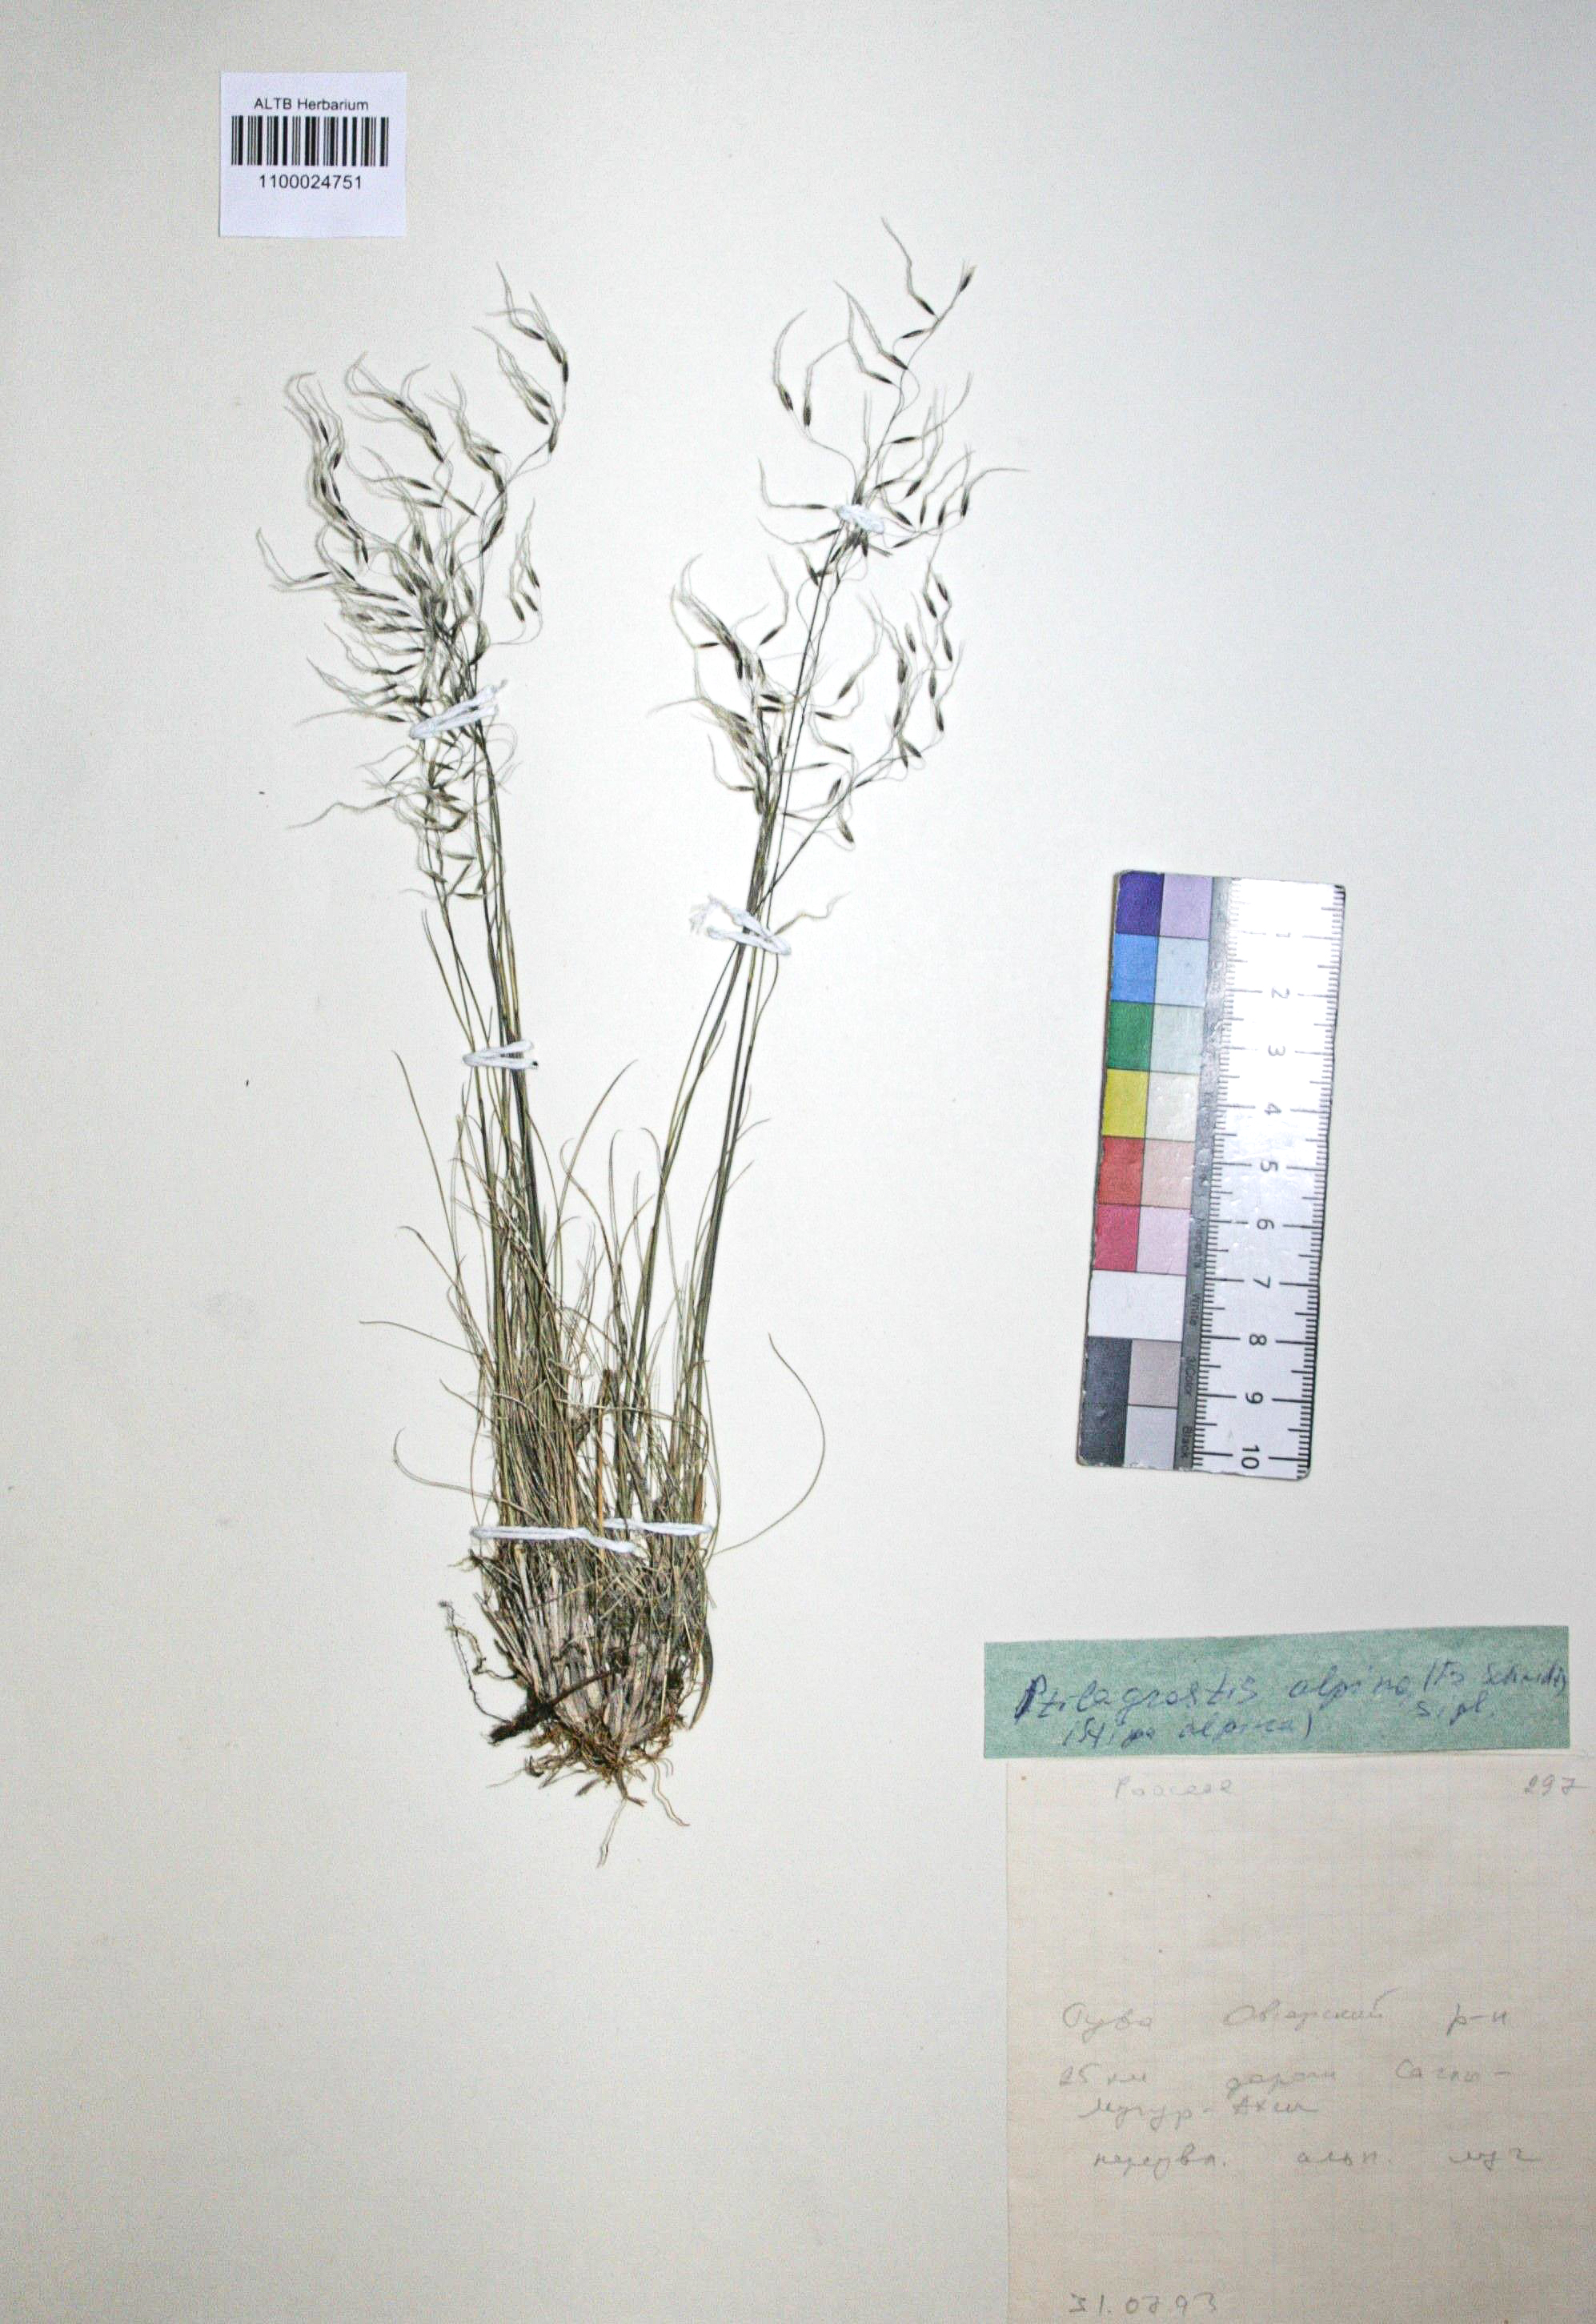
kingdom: Plantae
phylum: Tracheophyta
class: Liliopsida
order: Poales
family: Poaceae
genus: Ptilagrostis
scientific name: Ptilagrostis alpina
